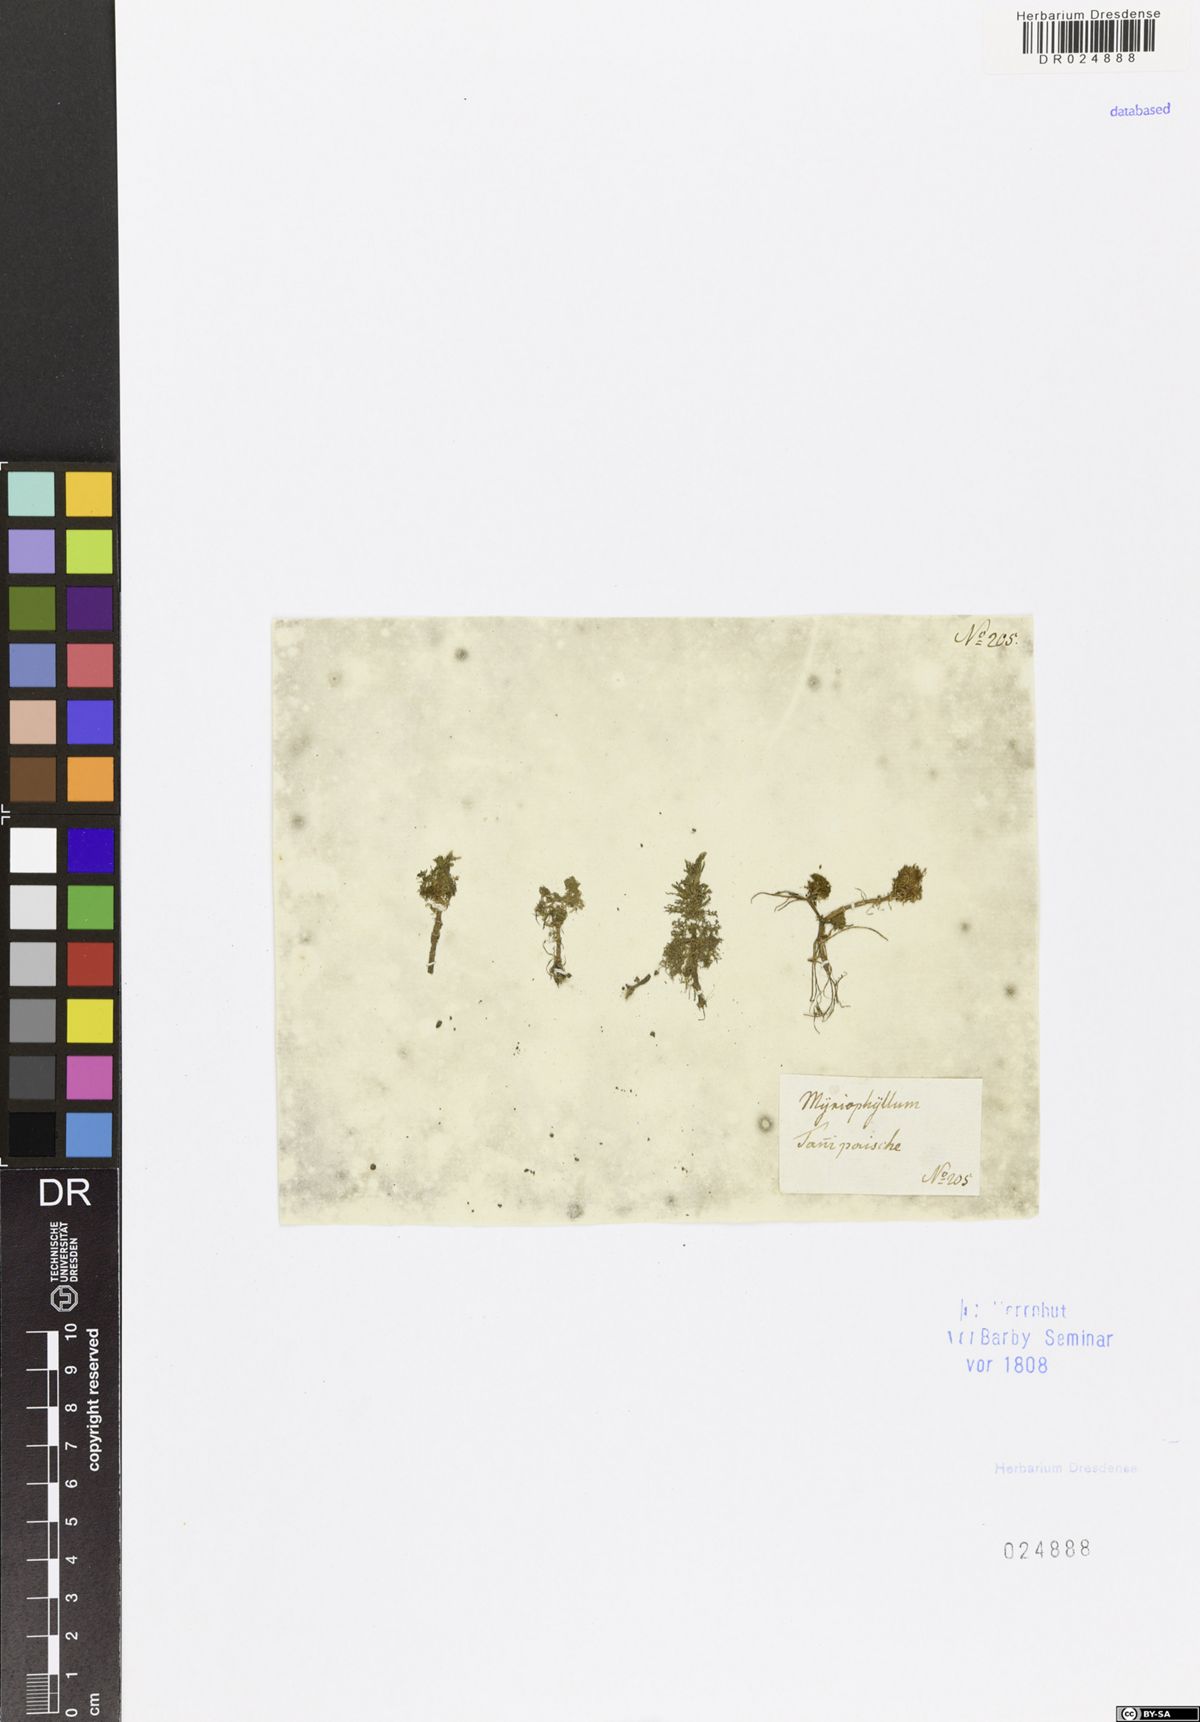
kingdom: Plantae
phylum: Tracheophyta
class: Magnoliopsida
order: Saxifragales
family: Haloragaceae
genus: Myriophyllum
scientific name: Myriophyllum
